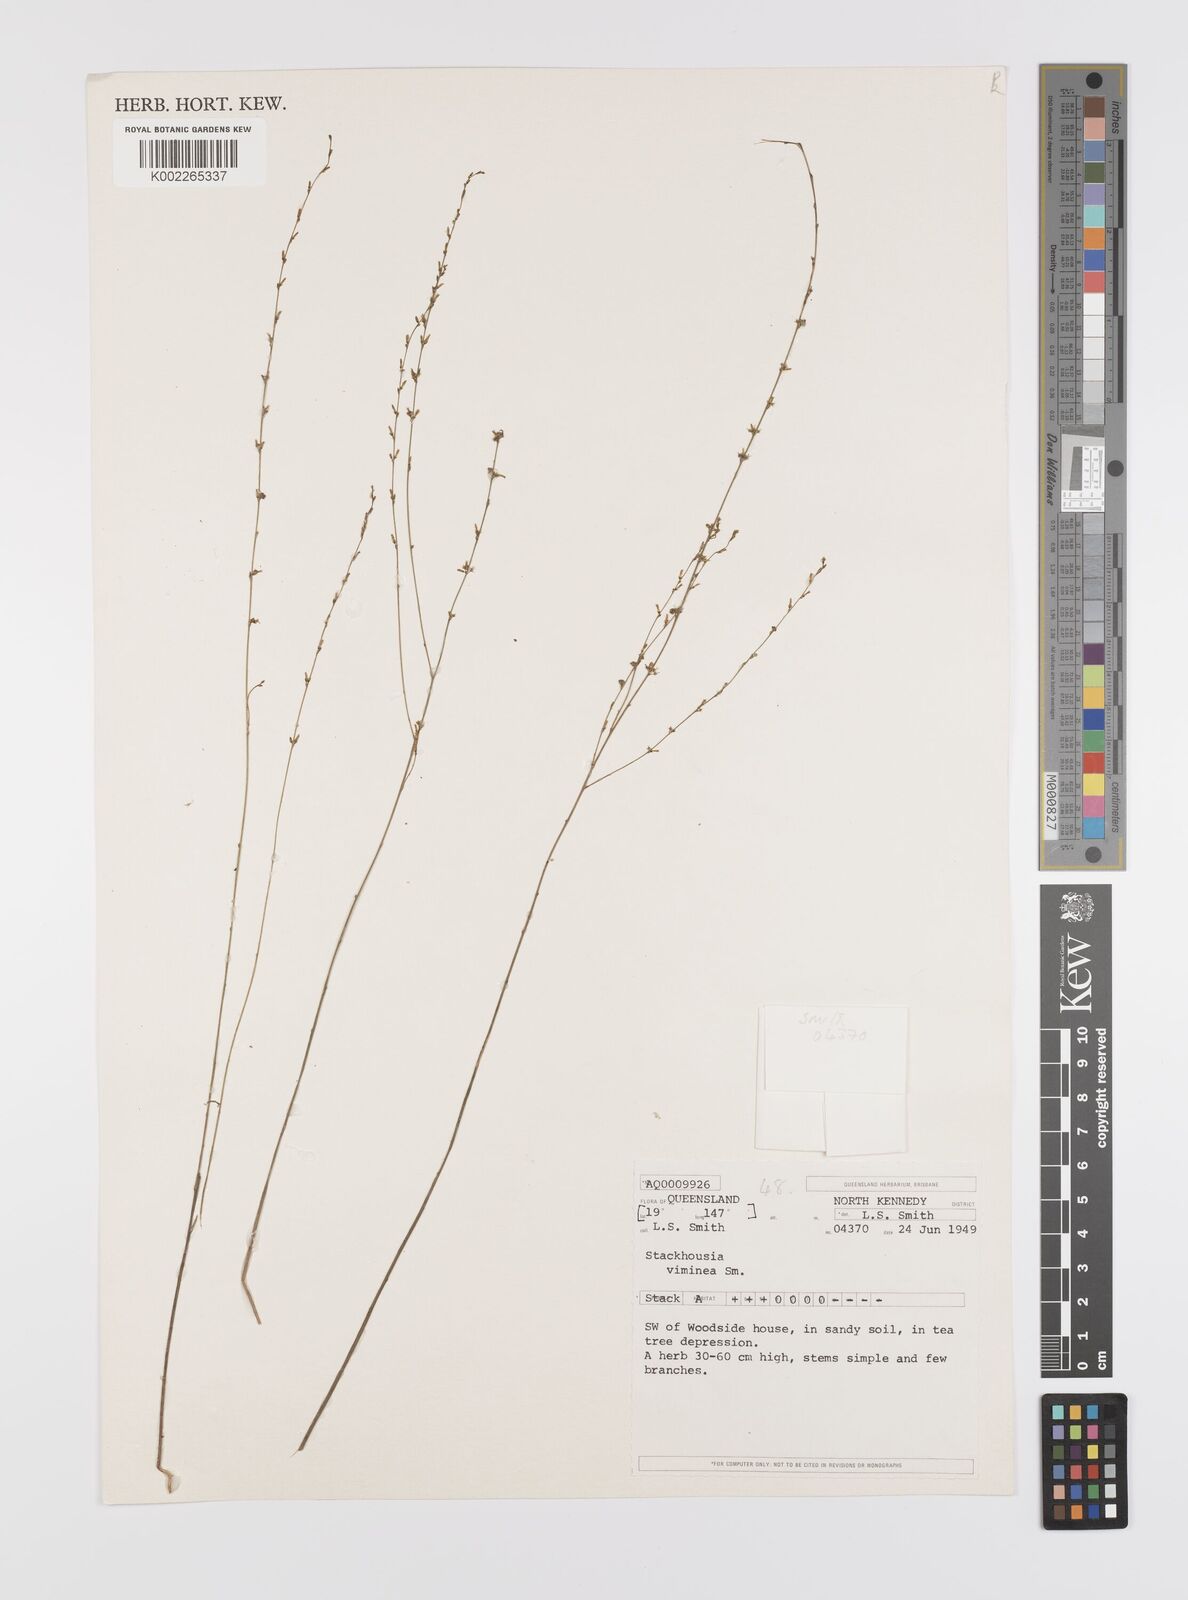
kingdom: Plantae
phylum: Tracheophyta
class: Magnoliopsida
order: Celastrales
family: Celastraceae
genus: Stackhousia
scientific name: Stackhousia viminea
